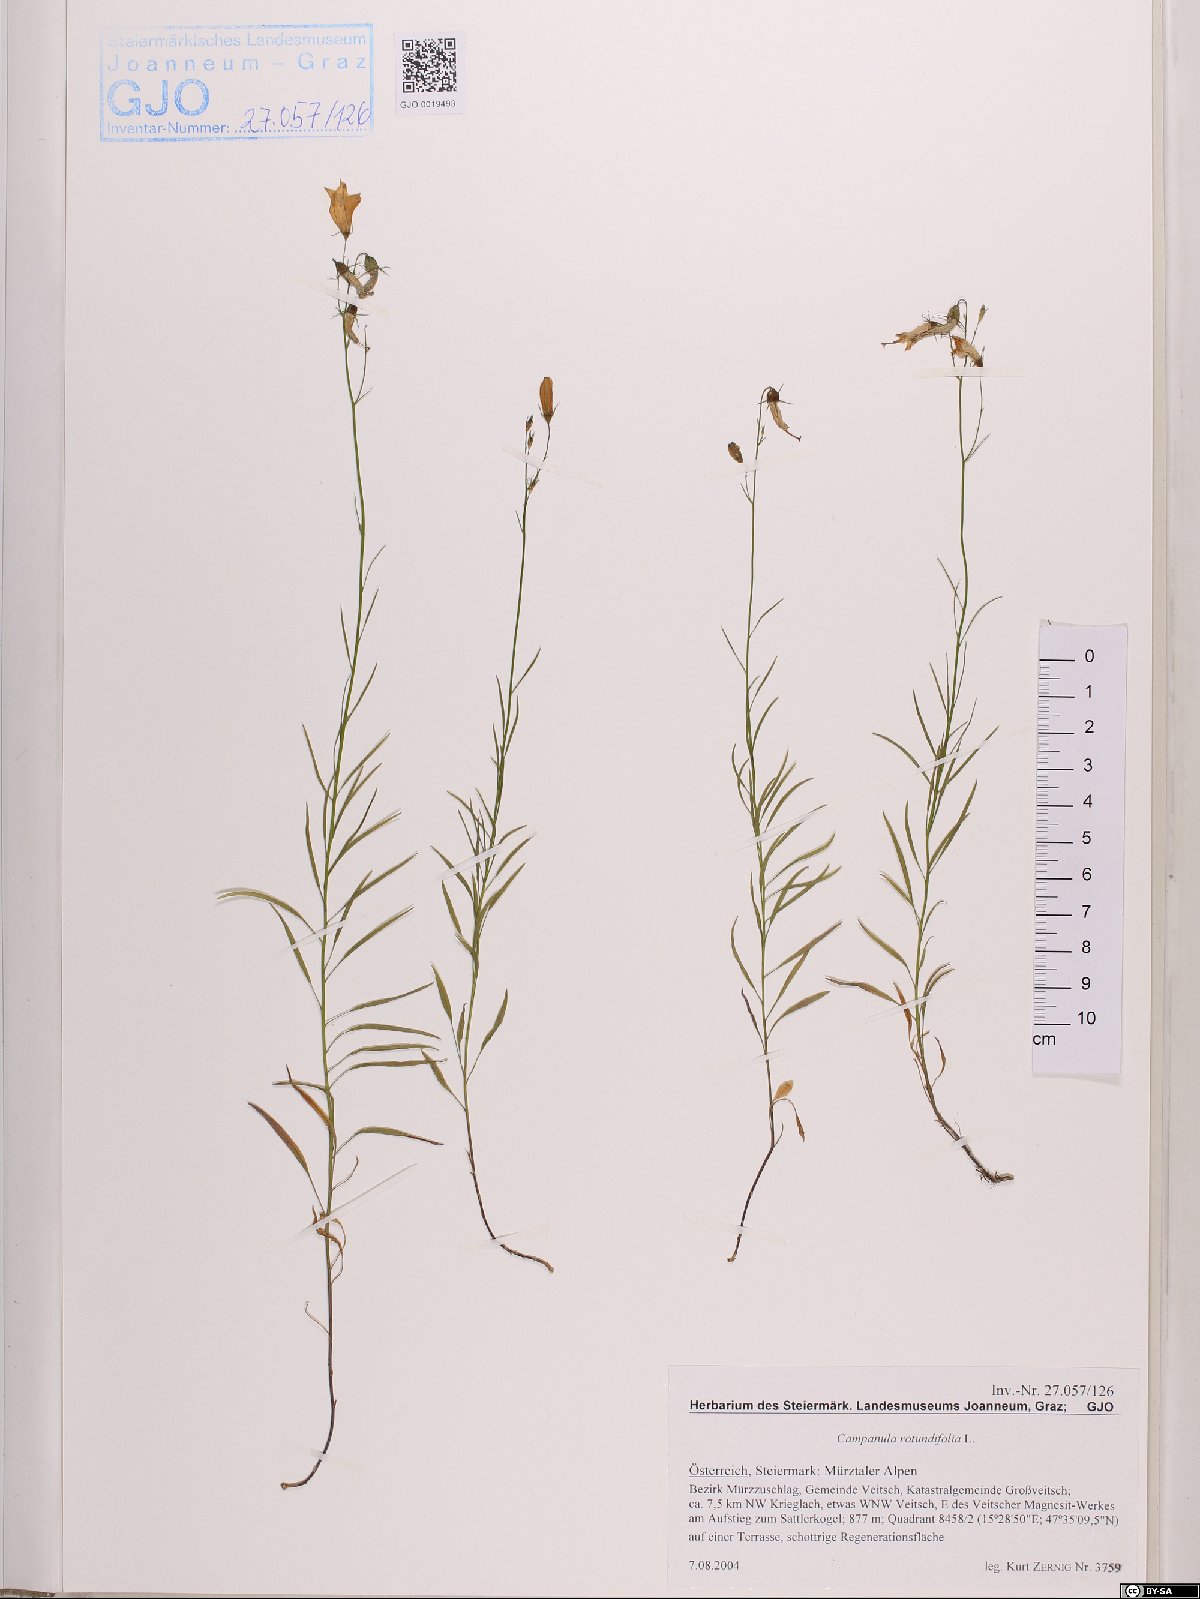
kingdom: Plantae
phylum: Tracheophyta
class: Magnoliopsida
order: Asterales
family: Campanulaceae
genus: Campanula
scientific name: Campanula rotundifolia
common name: Harebell
